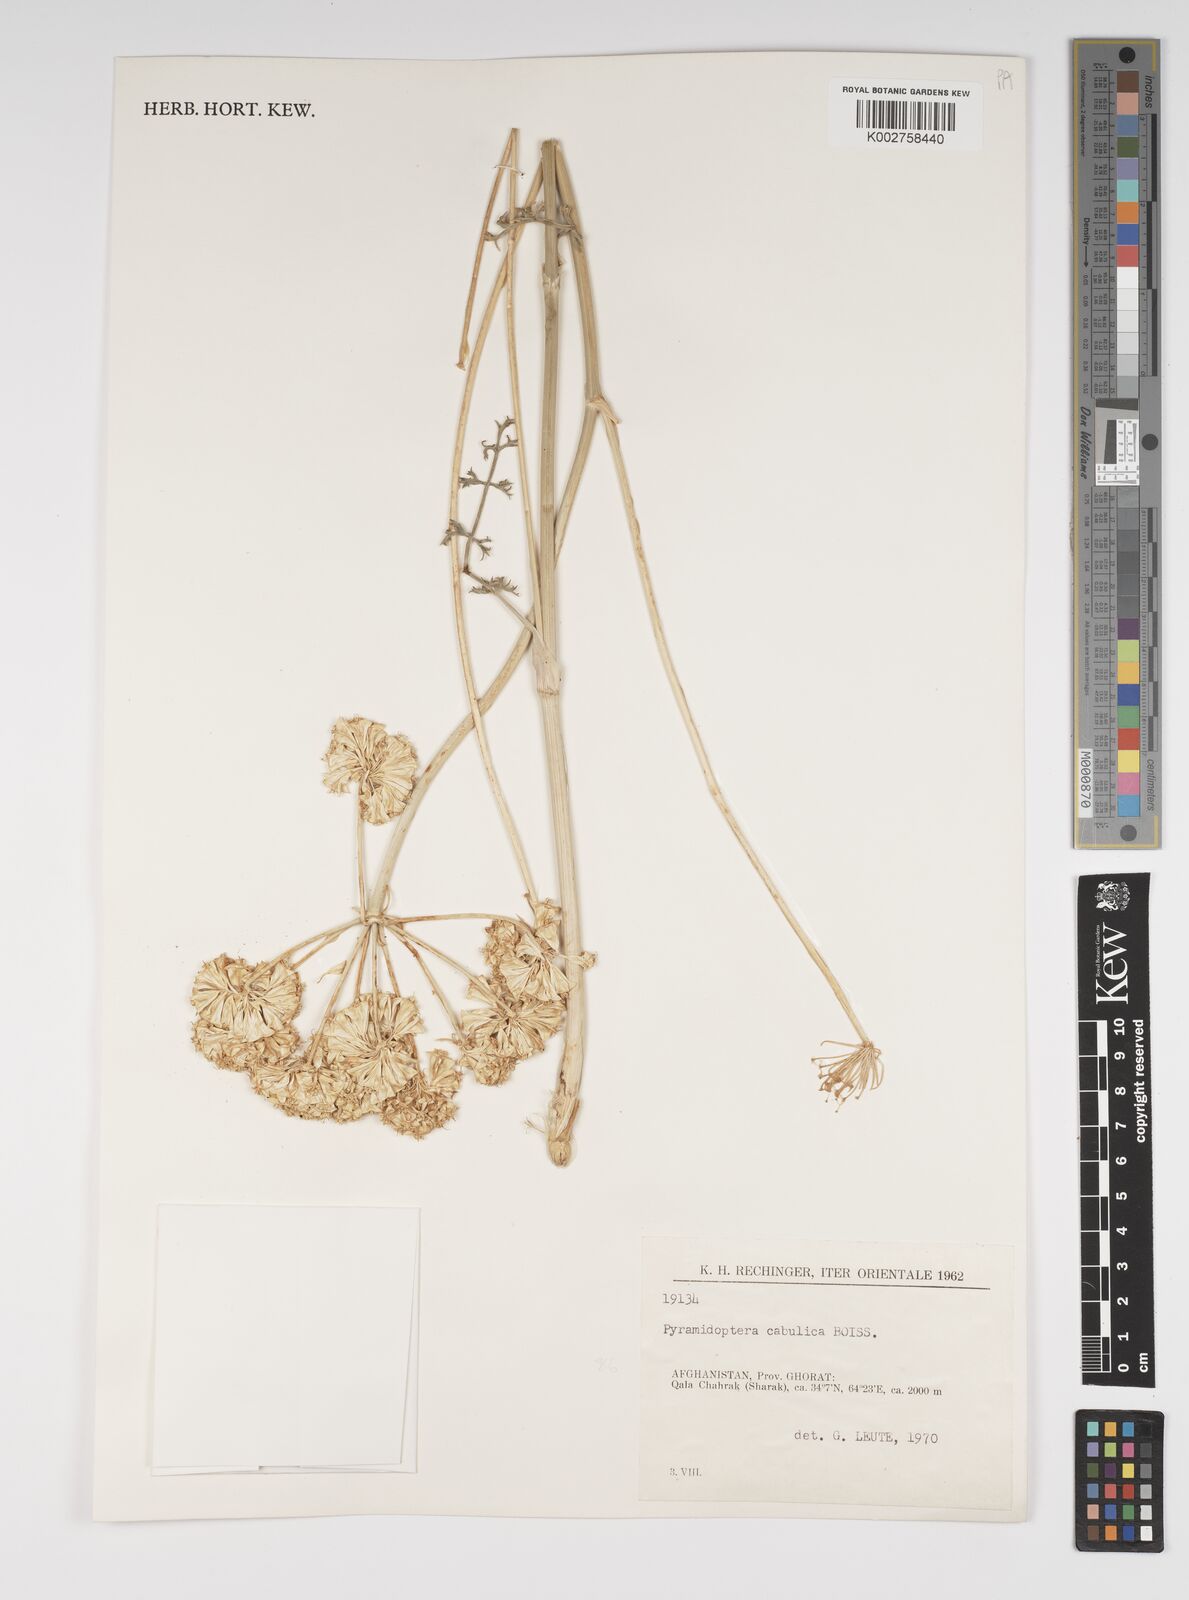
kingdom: Plantae
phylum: Tracheophyta
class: Magnoliopsida
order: Apiales
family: Apiaceae
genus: Pyramidoptera
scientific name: Pyramidoptera cabulica
